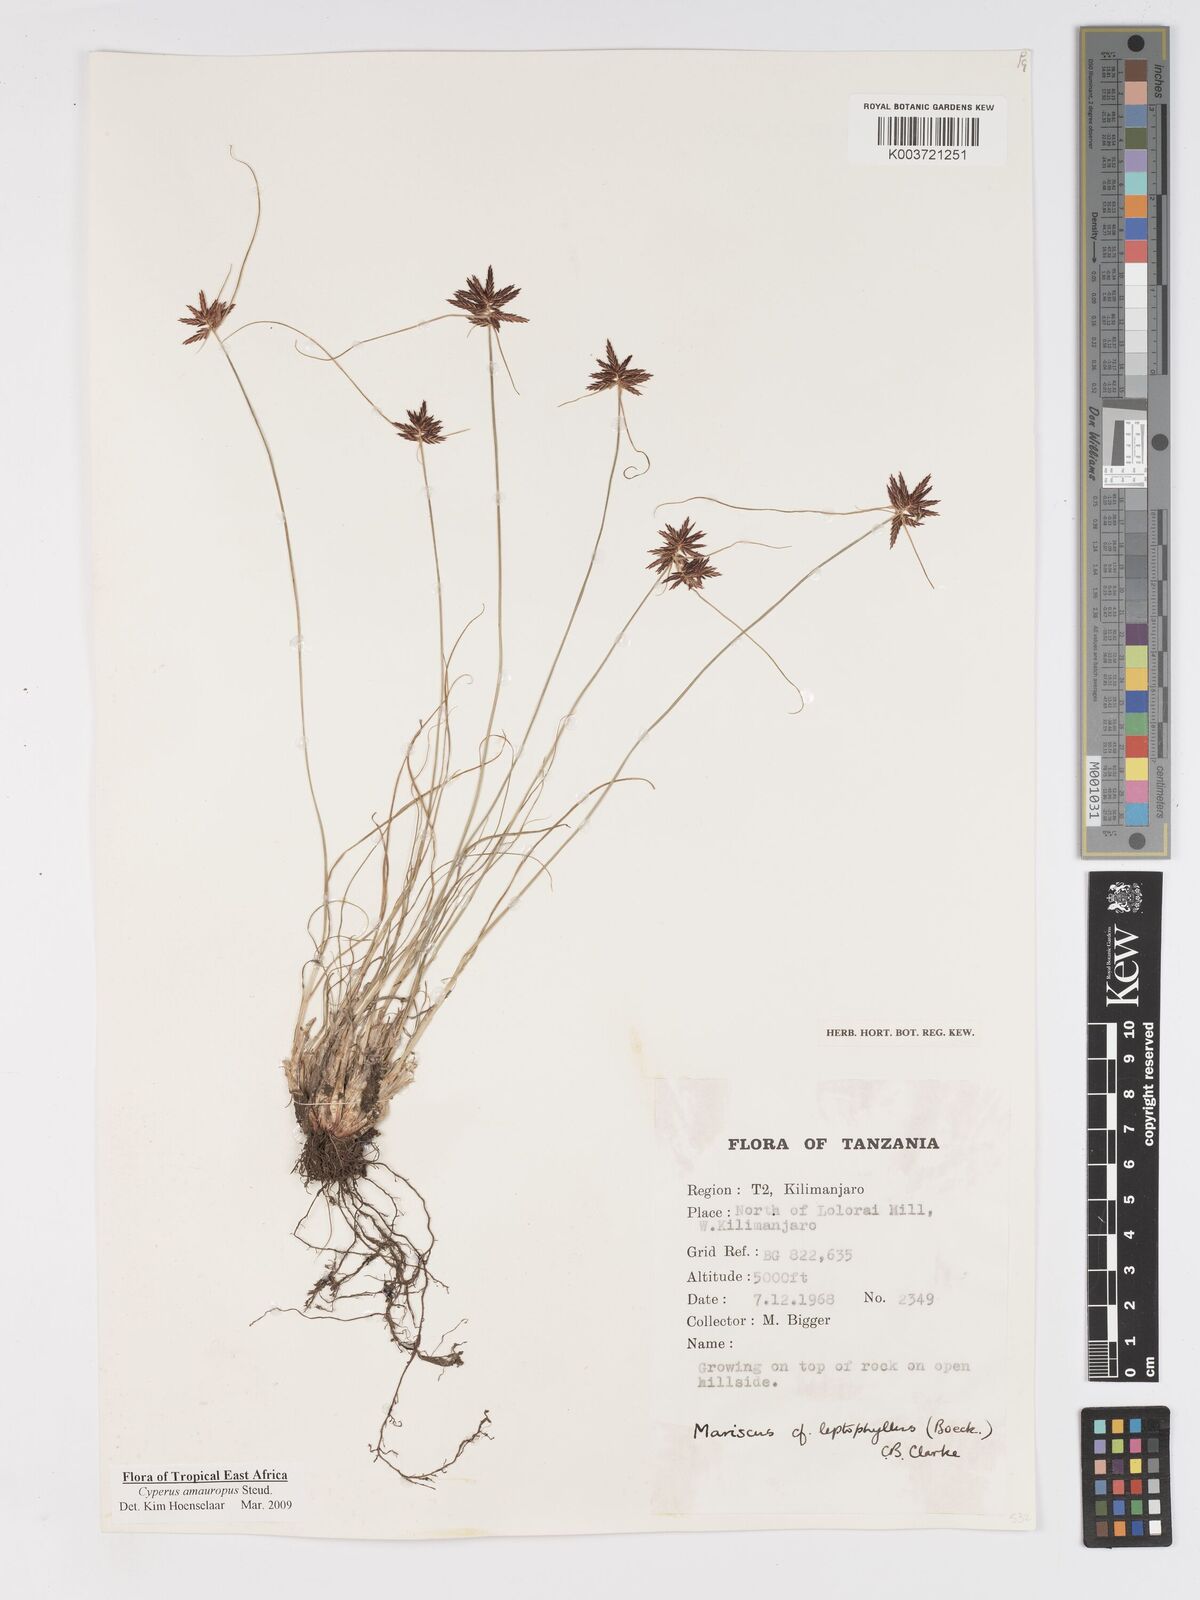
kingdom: Plantae
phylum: Tracheophyta
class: Liliopsida
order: Poales
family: Cyperaceae
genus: Cyperus
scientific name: Cyperus amauropus
